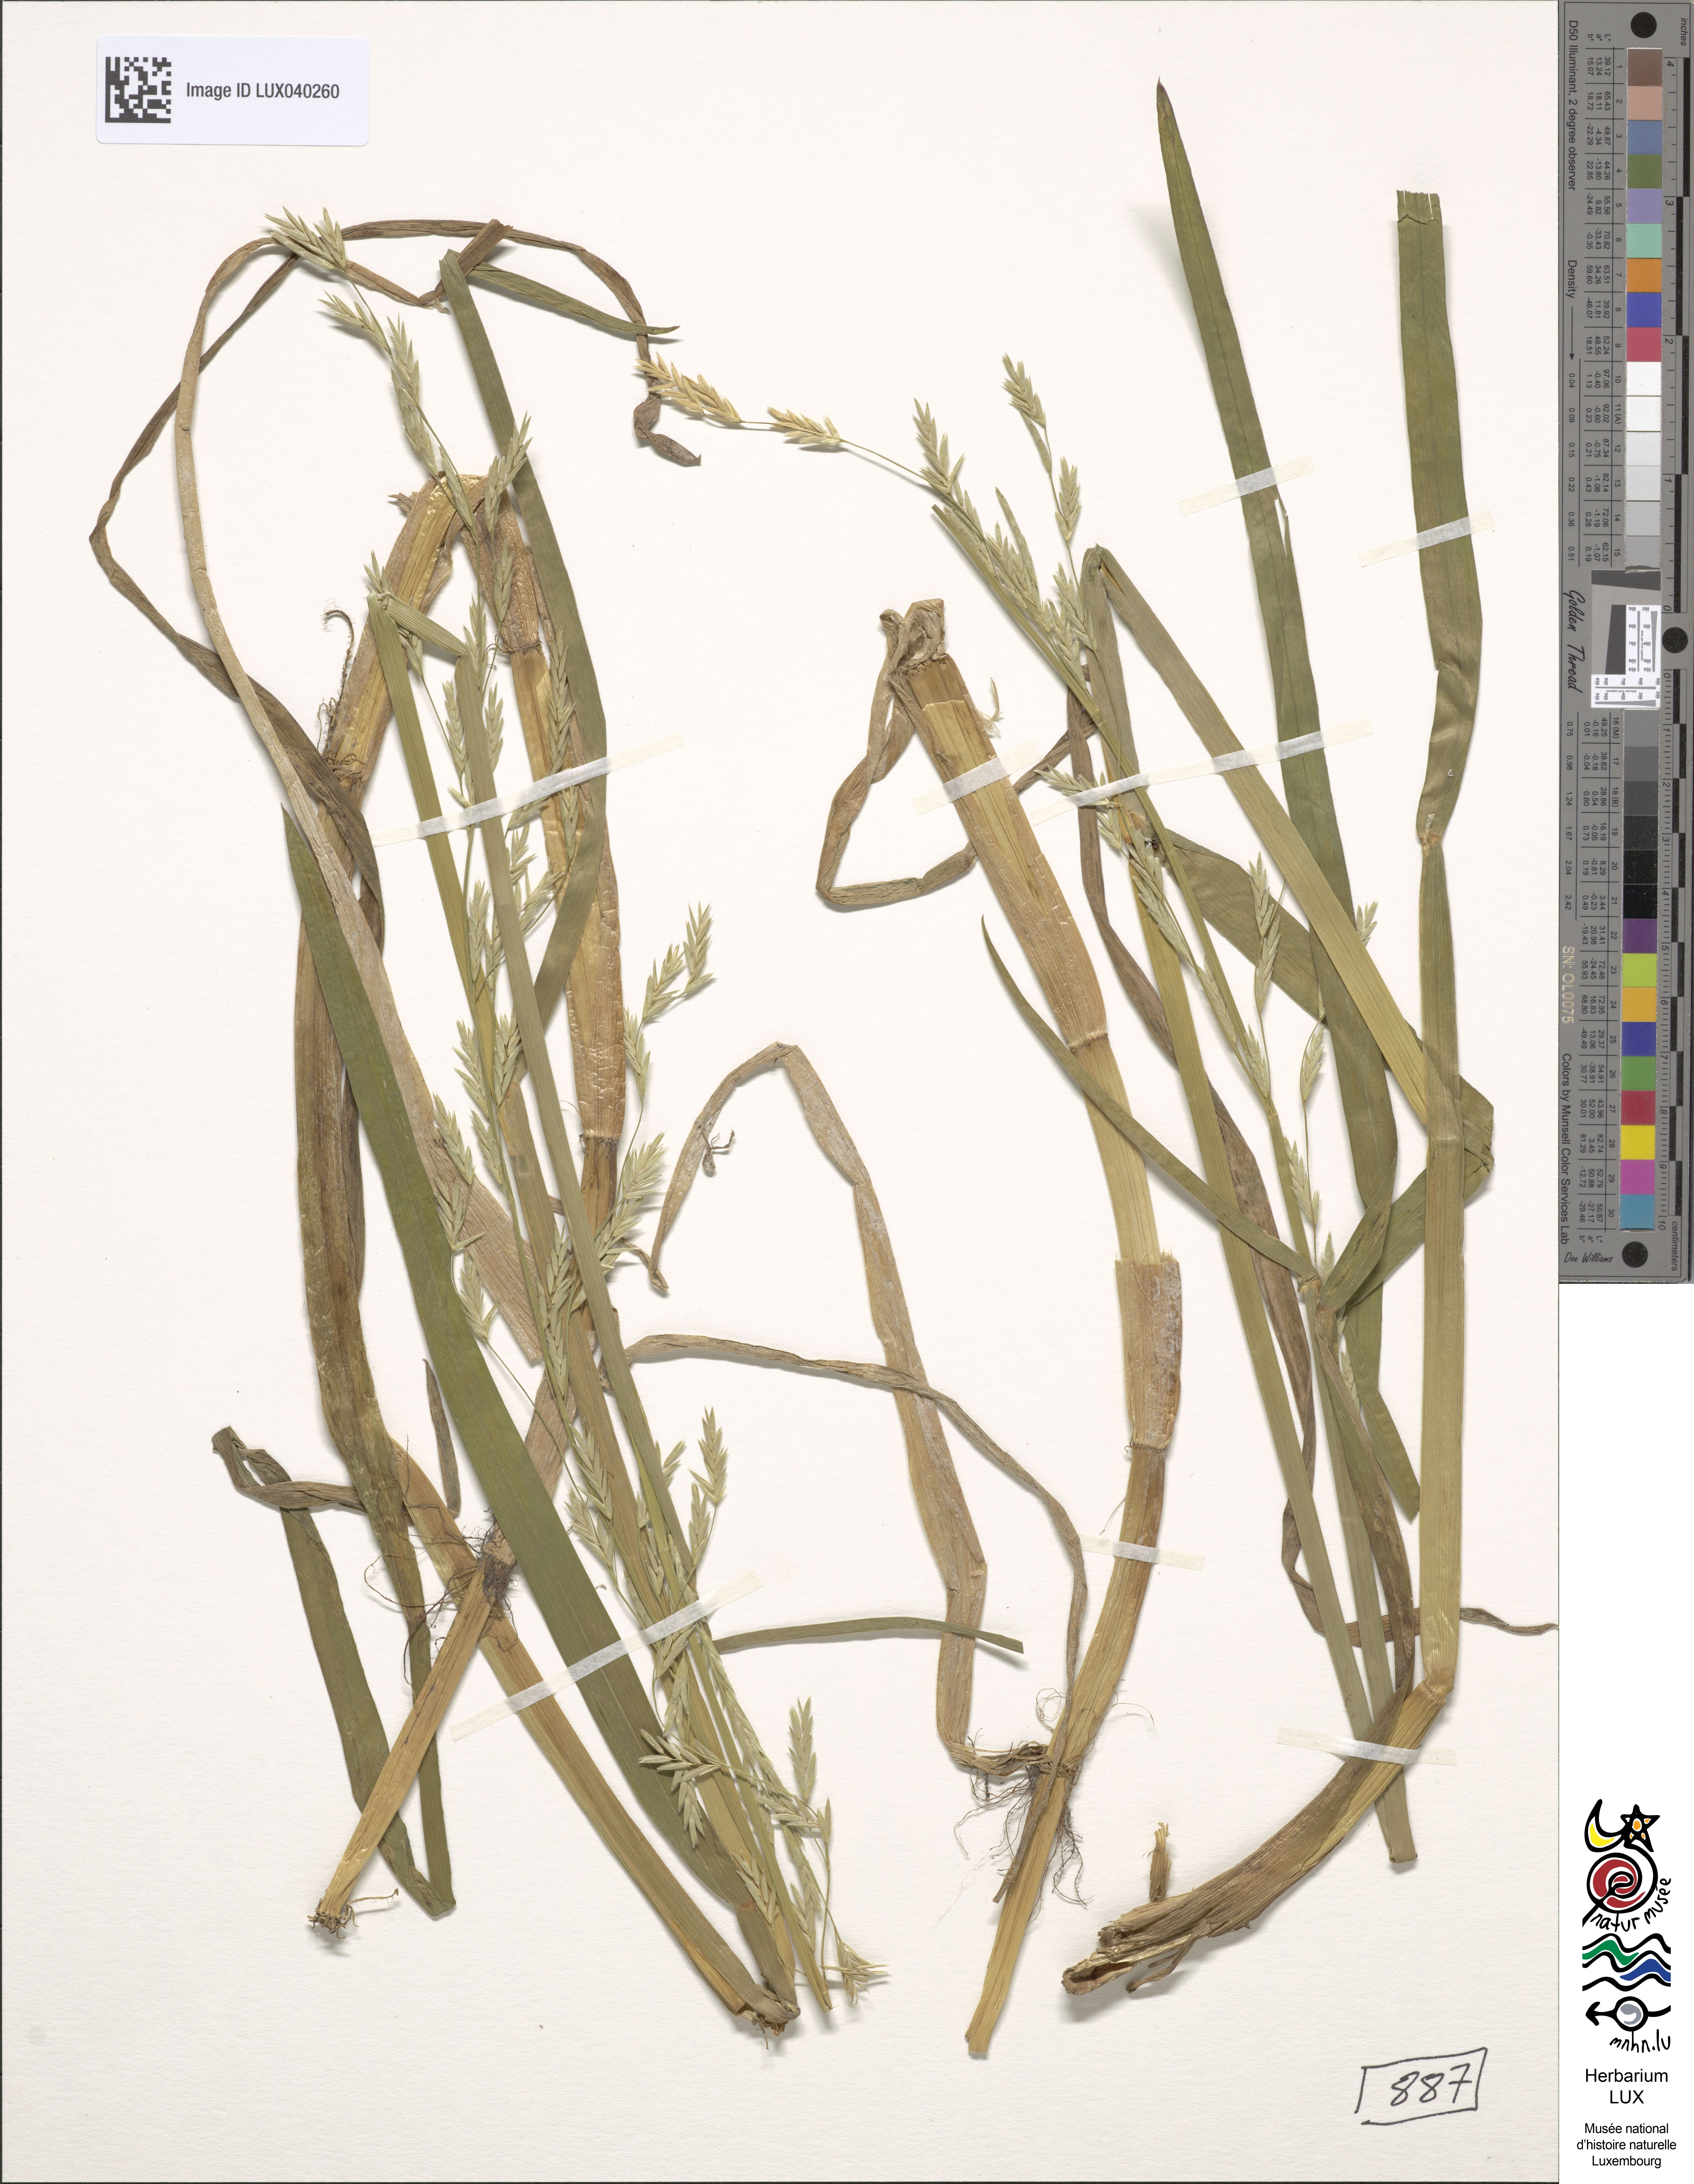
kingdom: Plantae
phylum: Tracheophyta
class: Liliopsida
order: Poales
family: Poaceae
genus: Glyceria
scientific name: Glyceria notata
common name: Plicate sweet-grass
